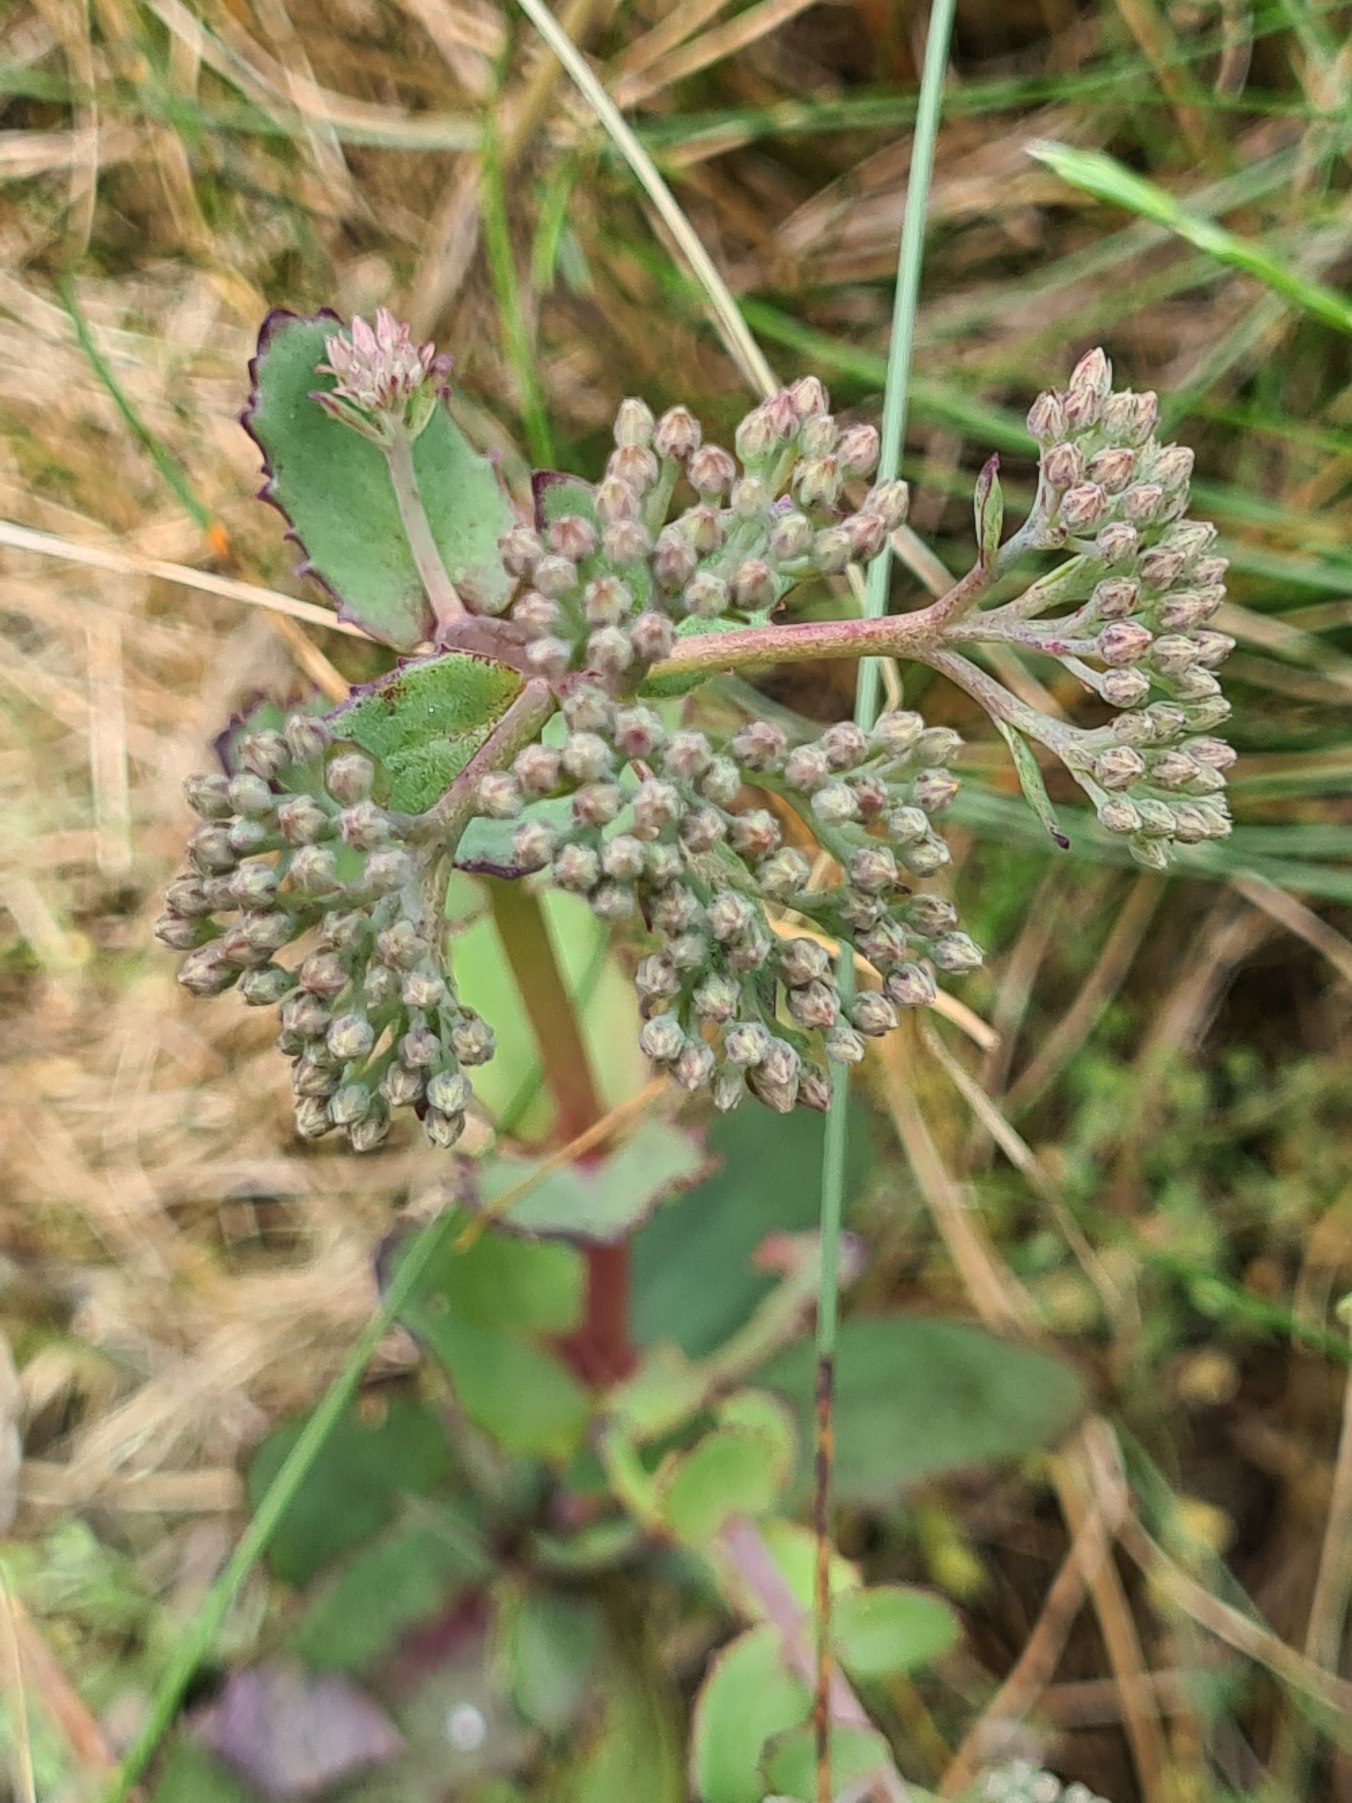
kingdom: Plantae
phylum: Tracheophyta
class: Magnoliopsida
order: Saxifragales
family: Crassulaceae
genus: Hylotelephium
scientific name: Hylotelephium maximum
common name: Almindelig sankthansurt
